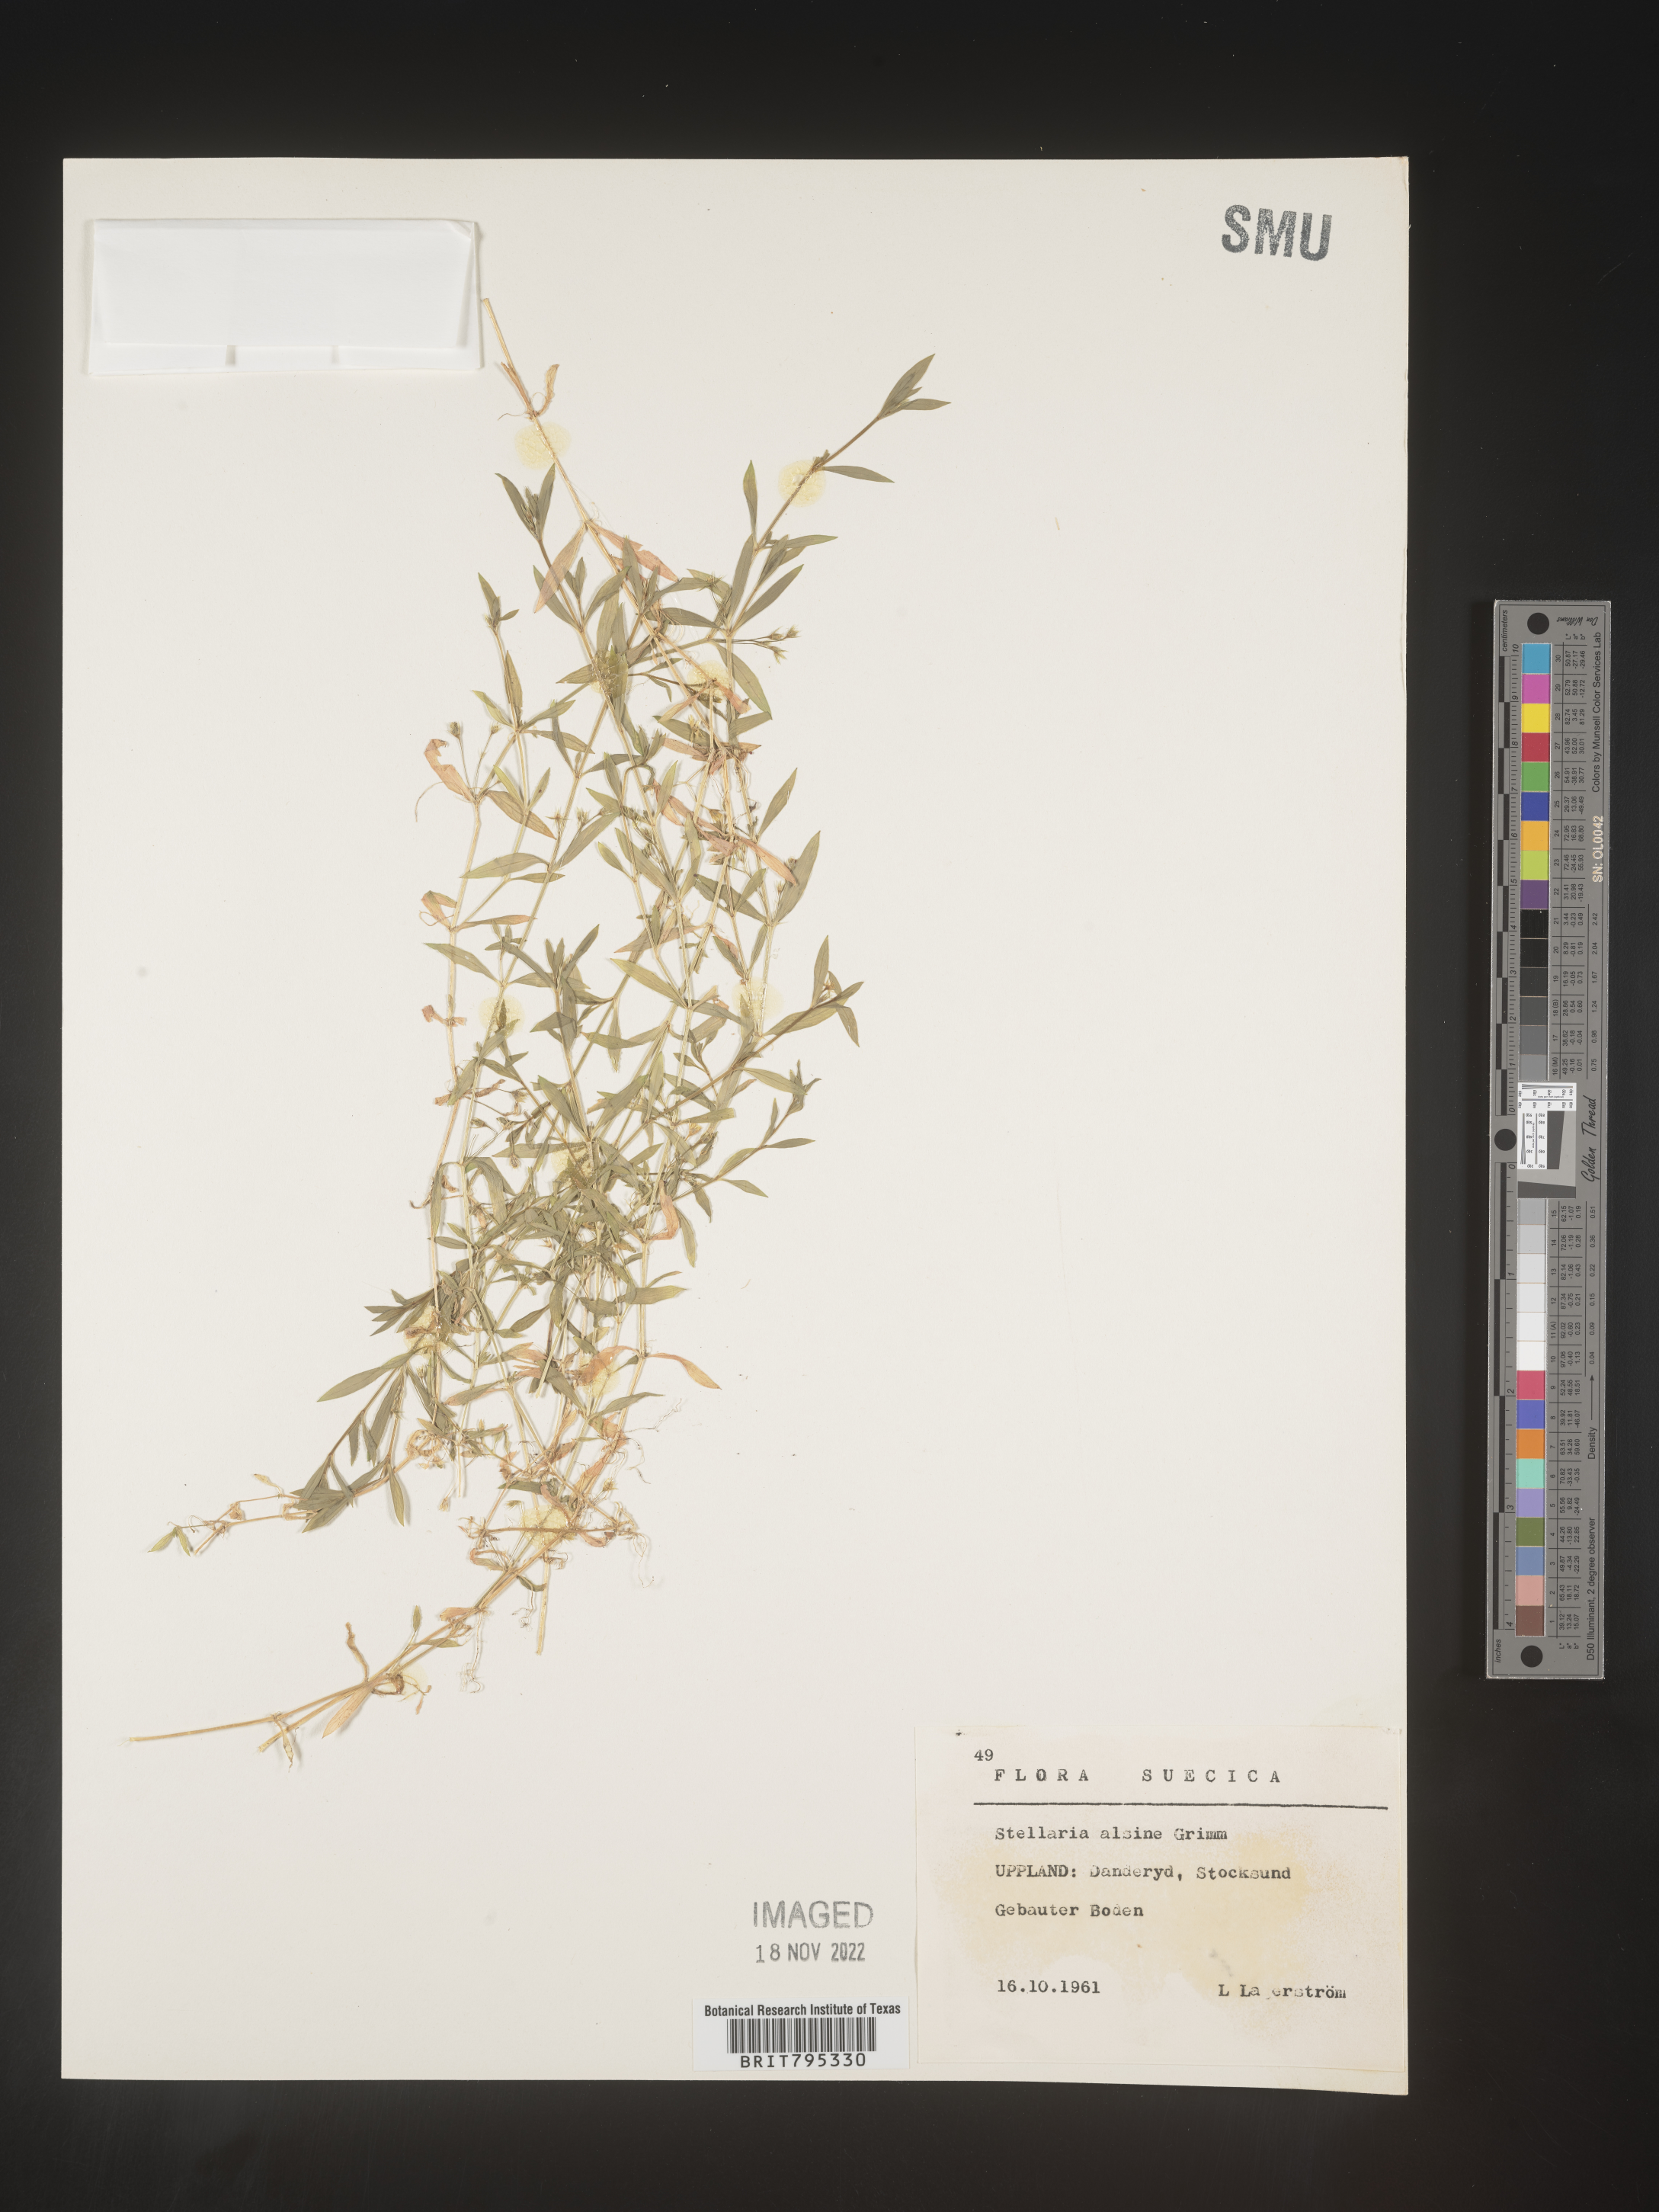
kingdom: Plantae
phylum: Tracheophyta
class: Magnoliopsida
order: Caryophyllales
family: Caryophyllaceae
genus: Stellaria
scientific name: Stellaria
